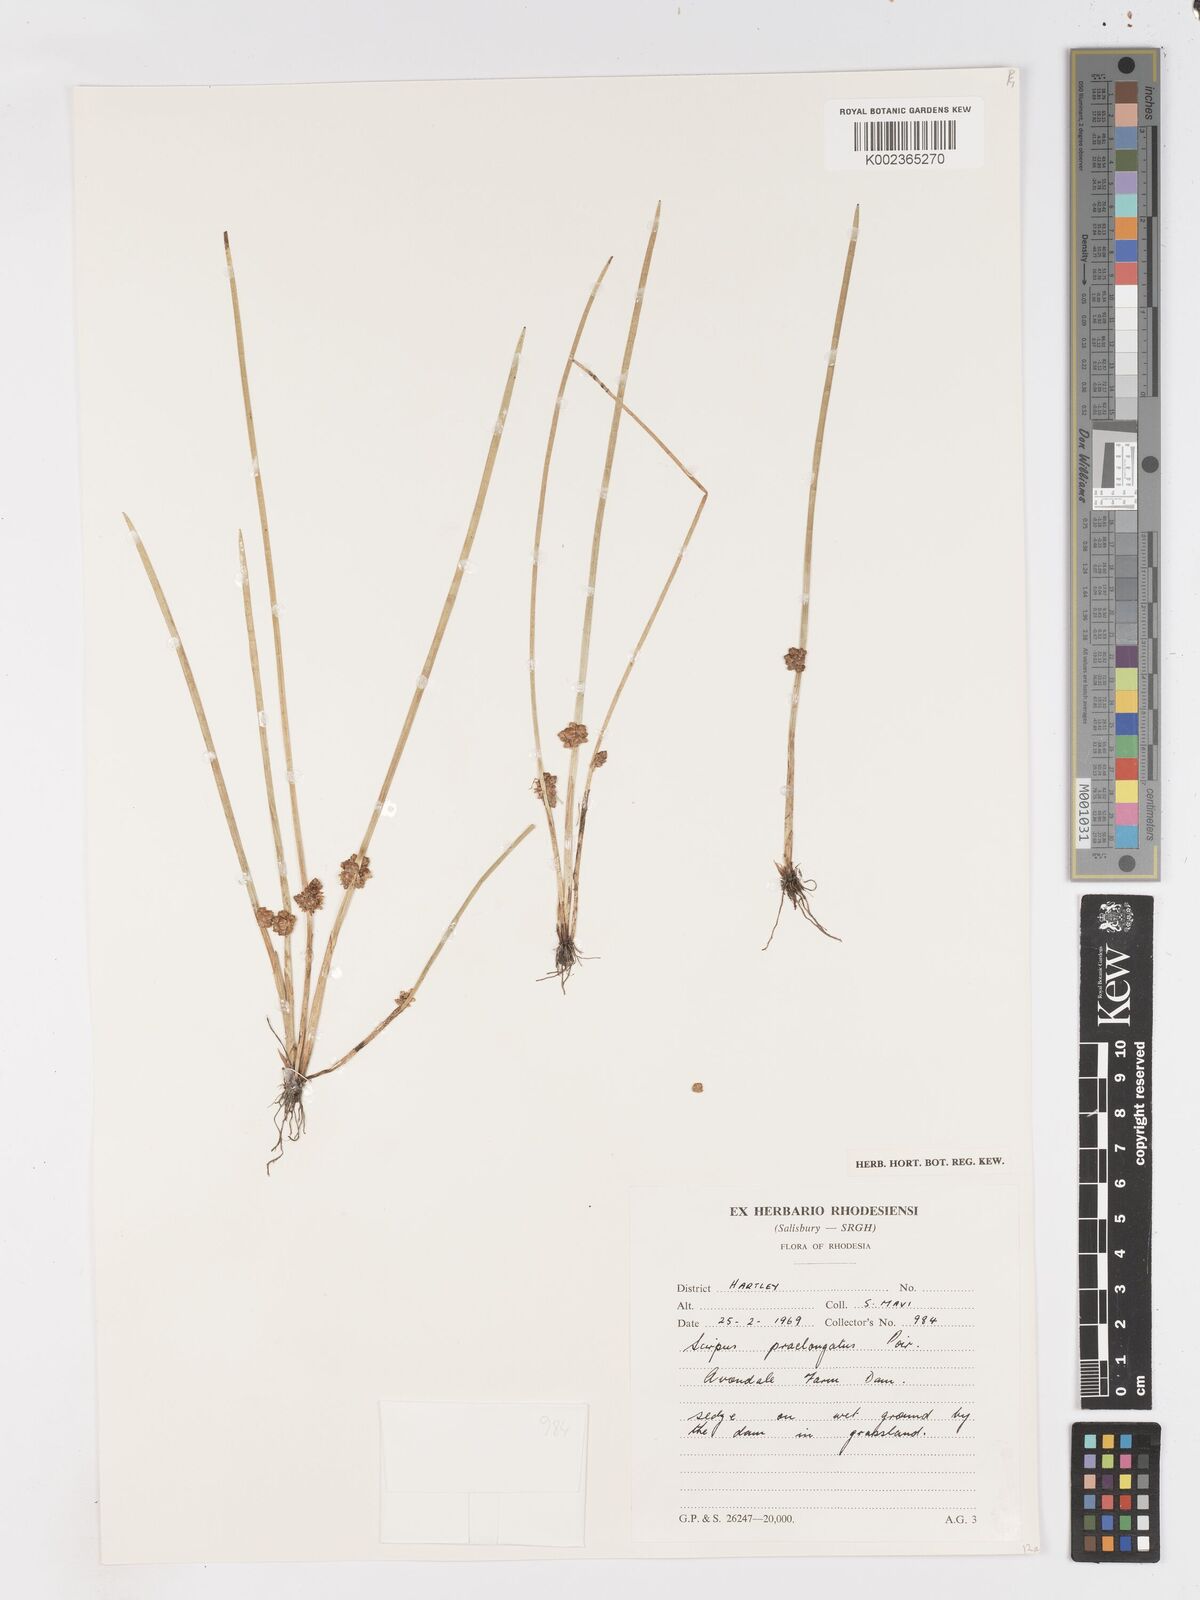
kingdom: Plantae
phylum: Tracheophyta
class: Liliopsida
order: Poales
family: Cyperaceae
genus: Schoenoplectiella
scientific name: Schoenoplectiella senegalensis
